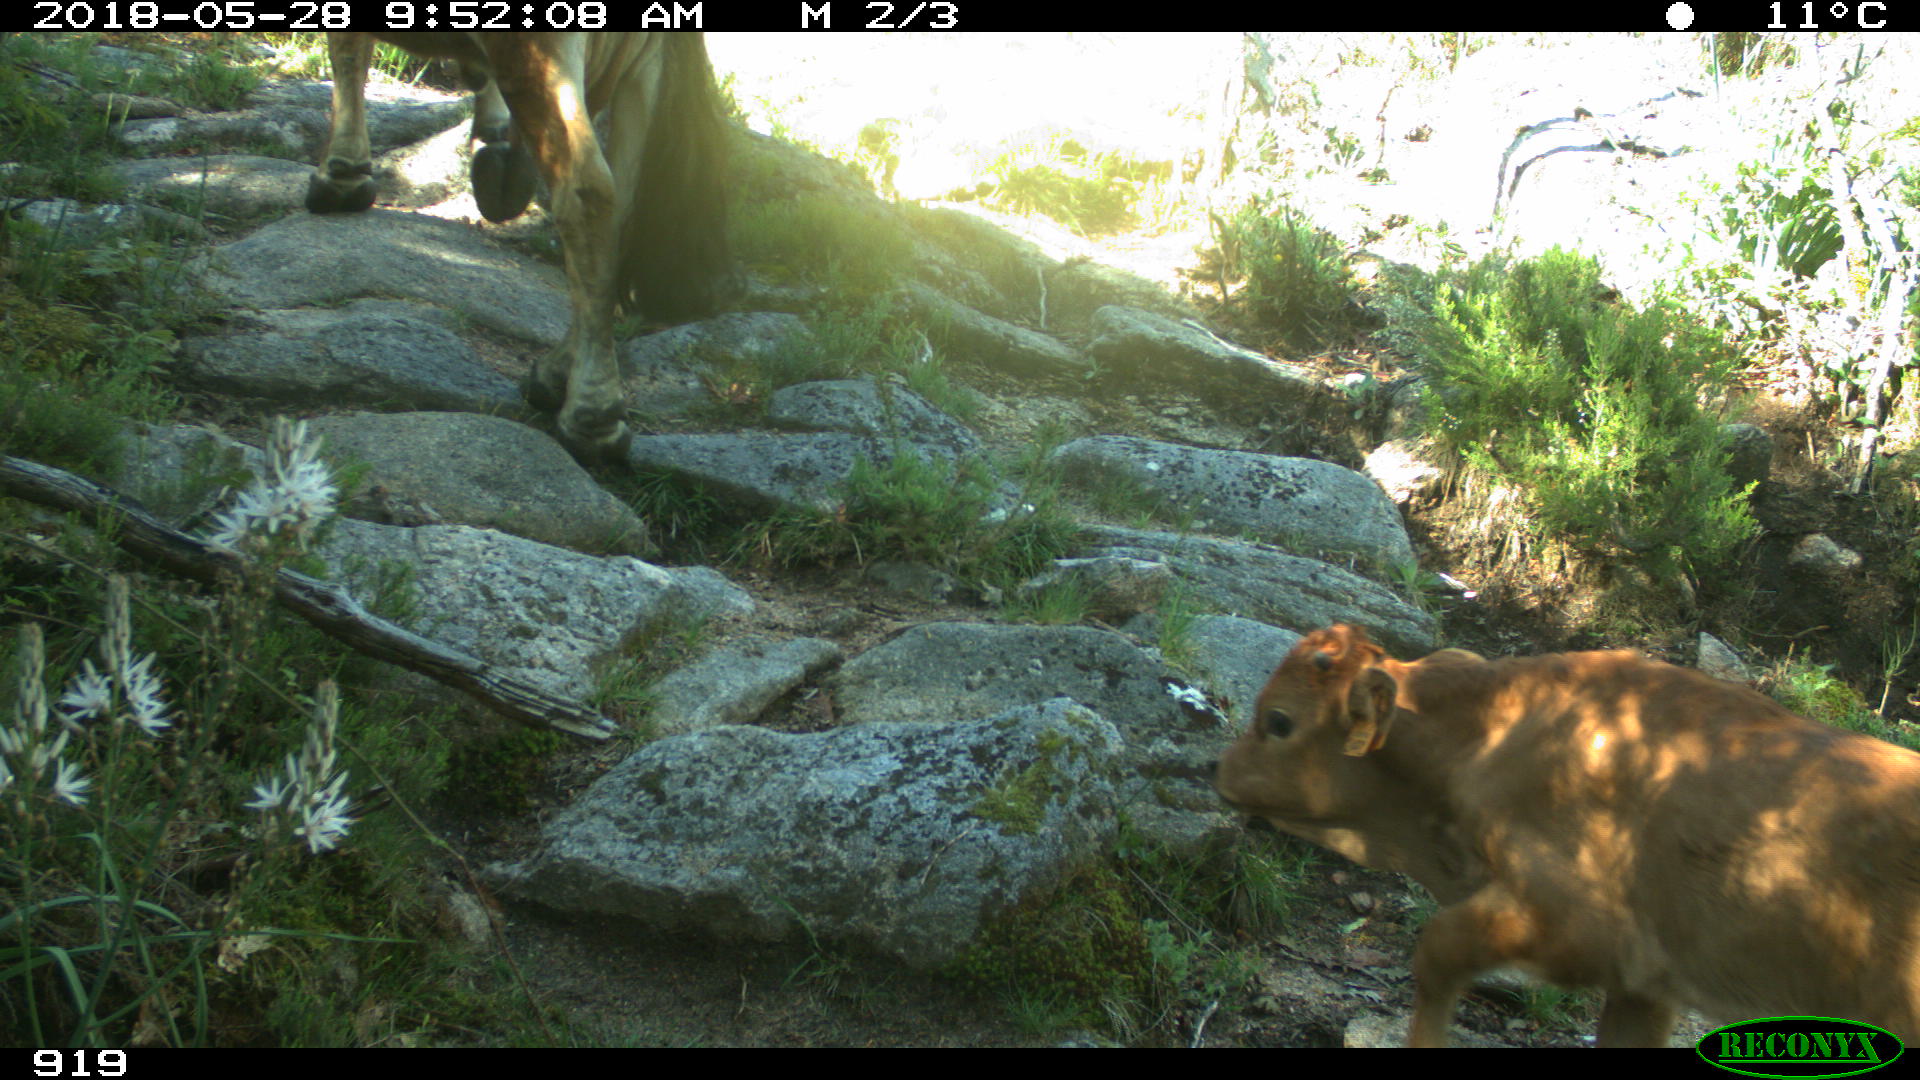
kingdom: Animalia
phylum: Chordata
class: Mammalia
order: Artiodactyla
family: Bovidae
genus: Bos
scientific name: Bos taurus
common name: Domesticated cattle
